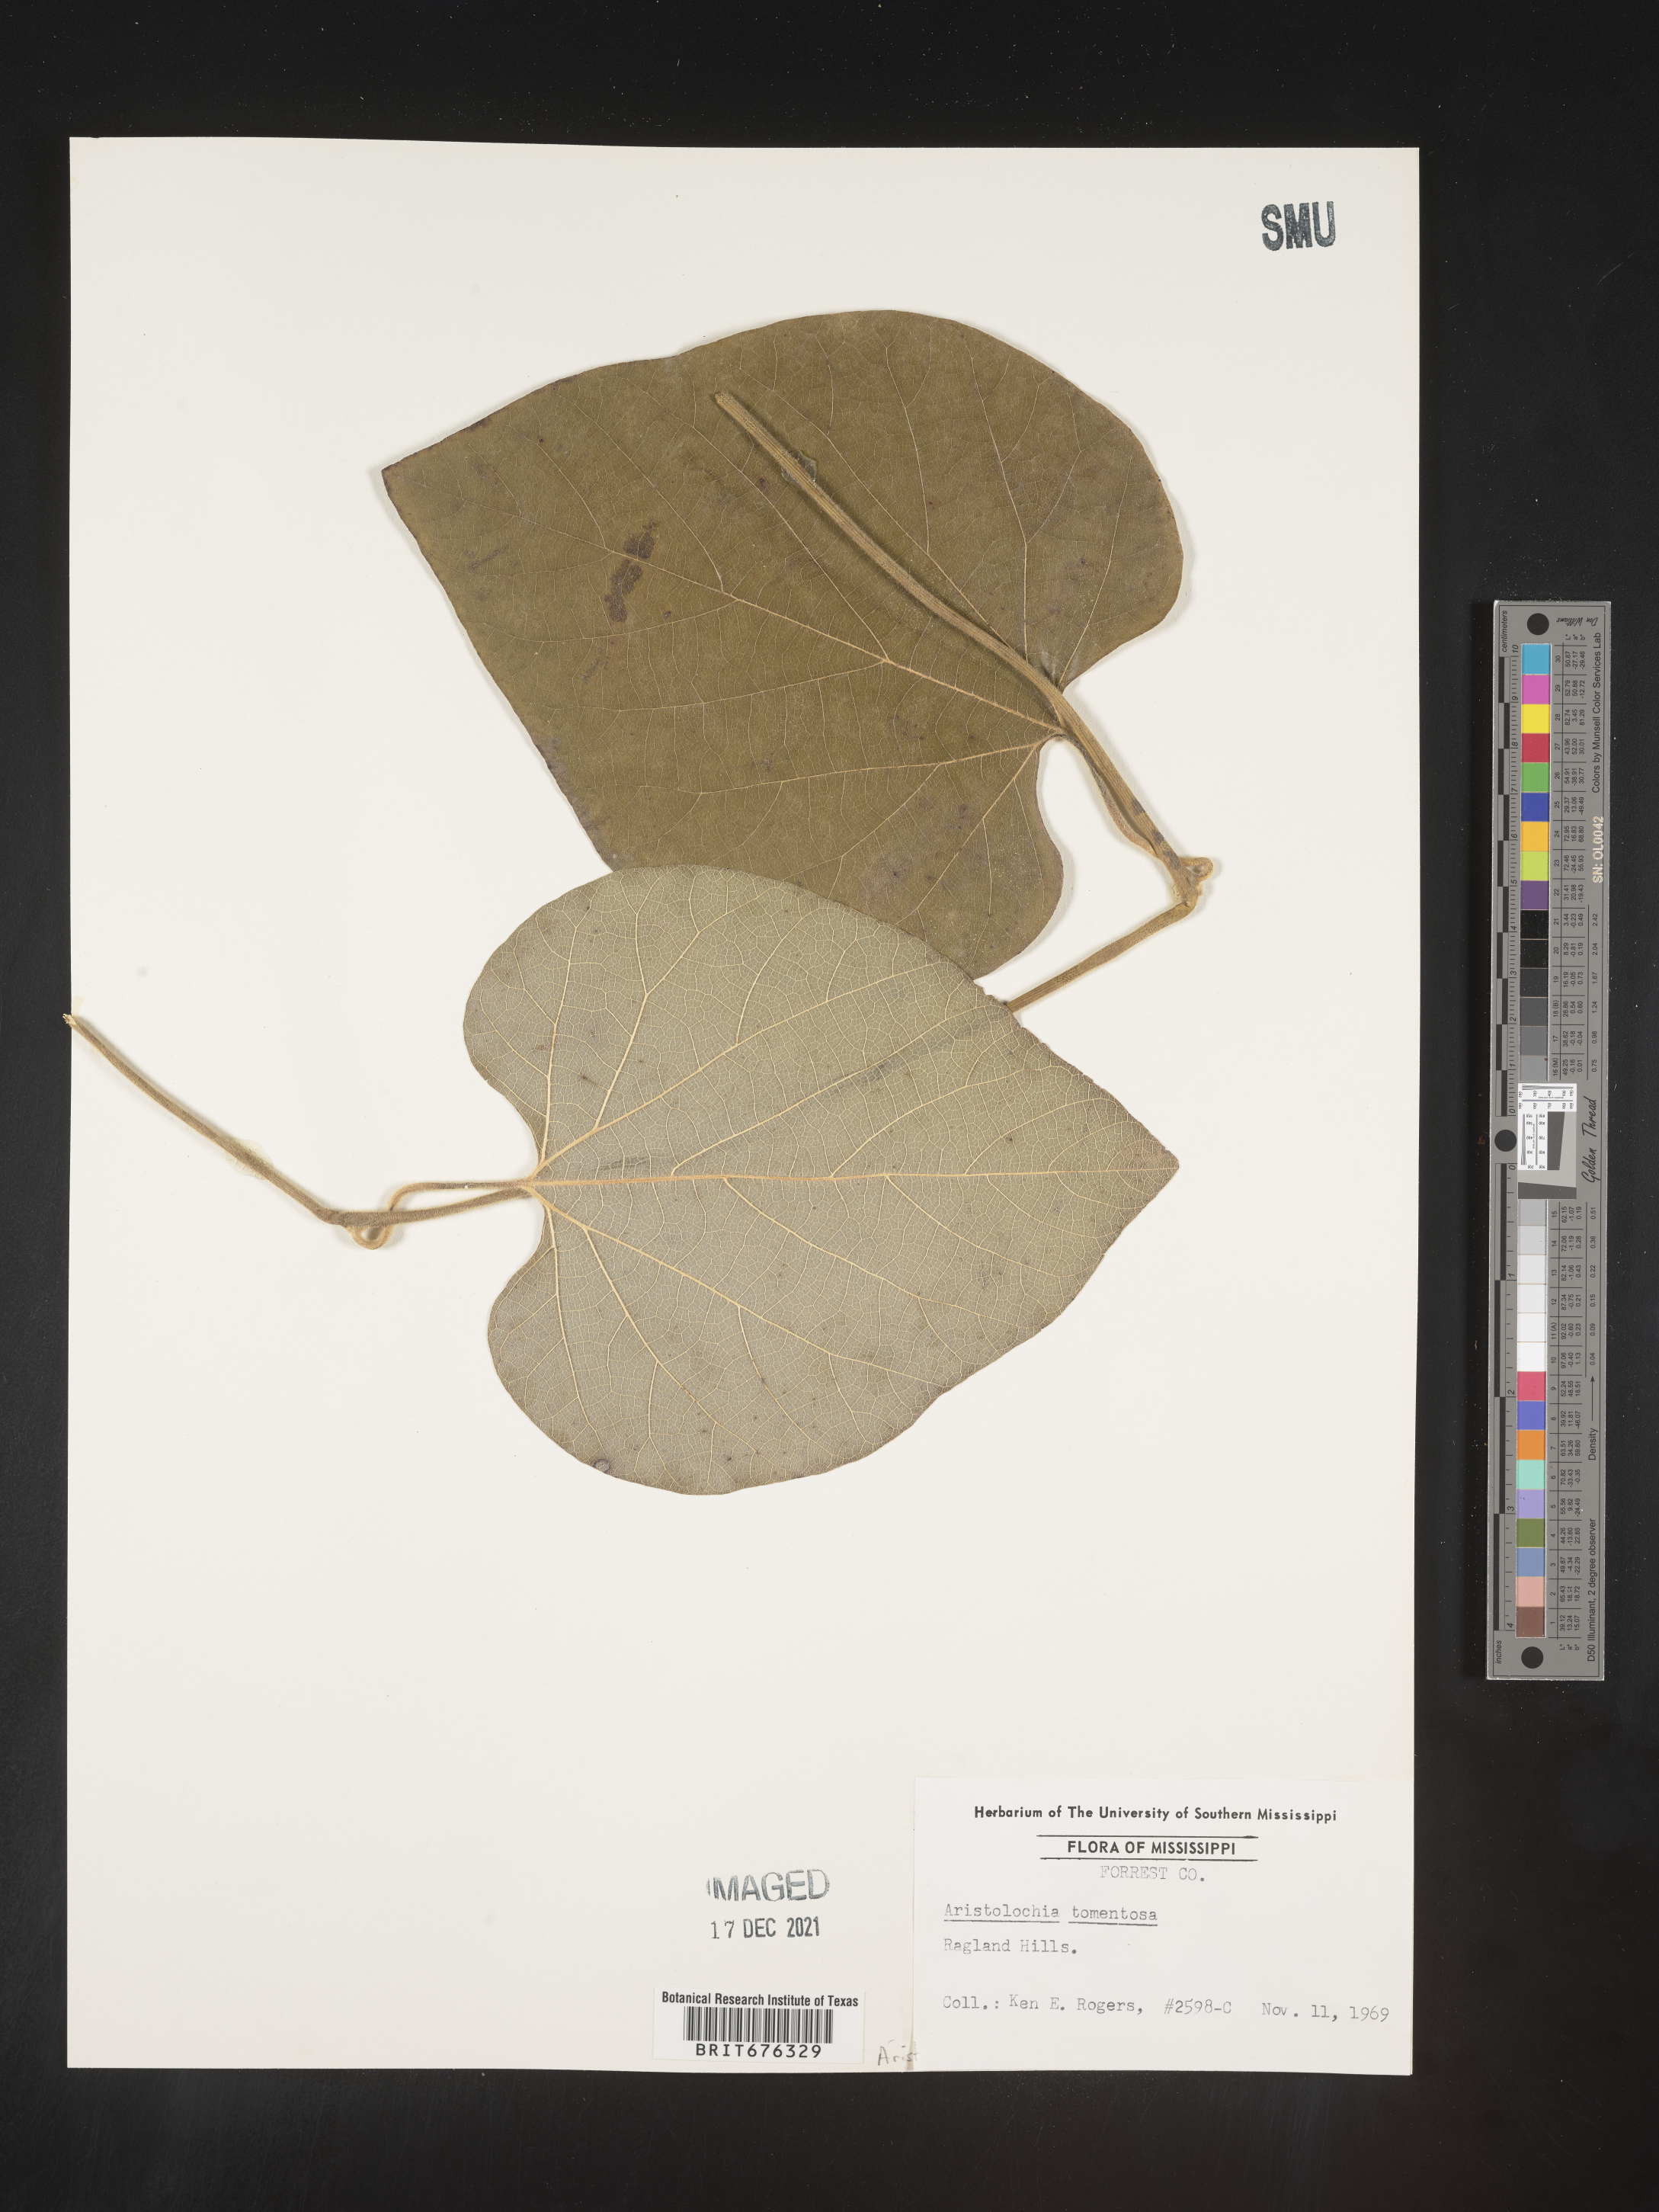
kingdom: Plantae
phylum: Tracheophyta
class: Magnoliopsida
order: Piperales
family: Aristolochiaceae
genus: Isotrema
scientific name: Isotrema tomentosum
